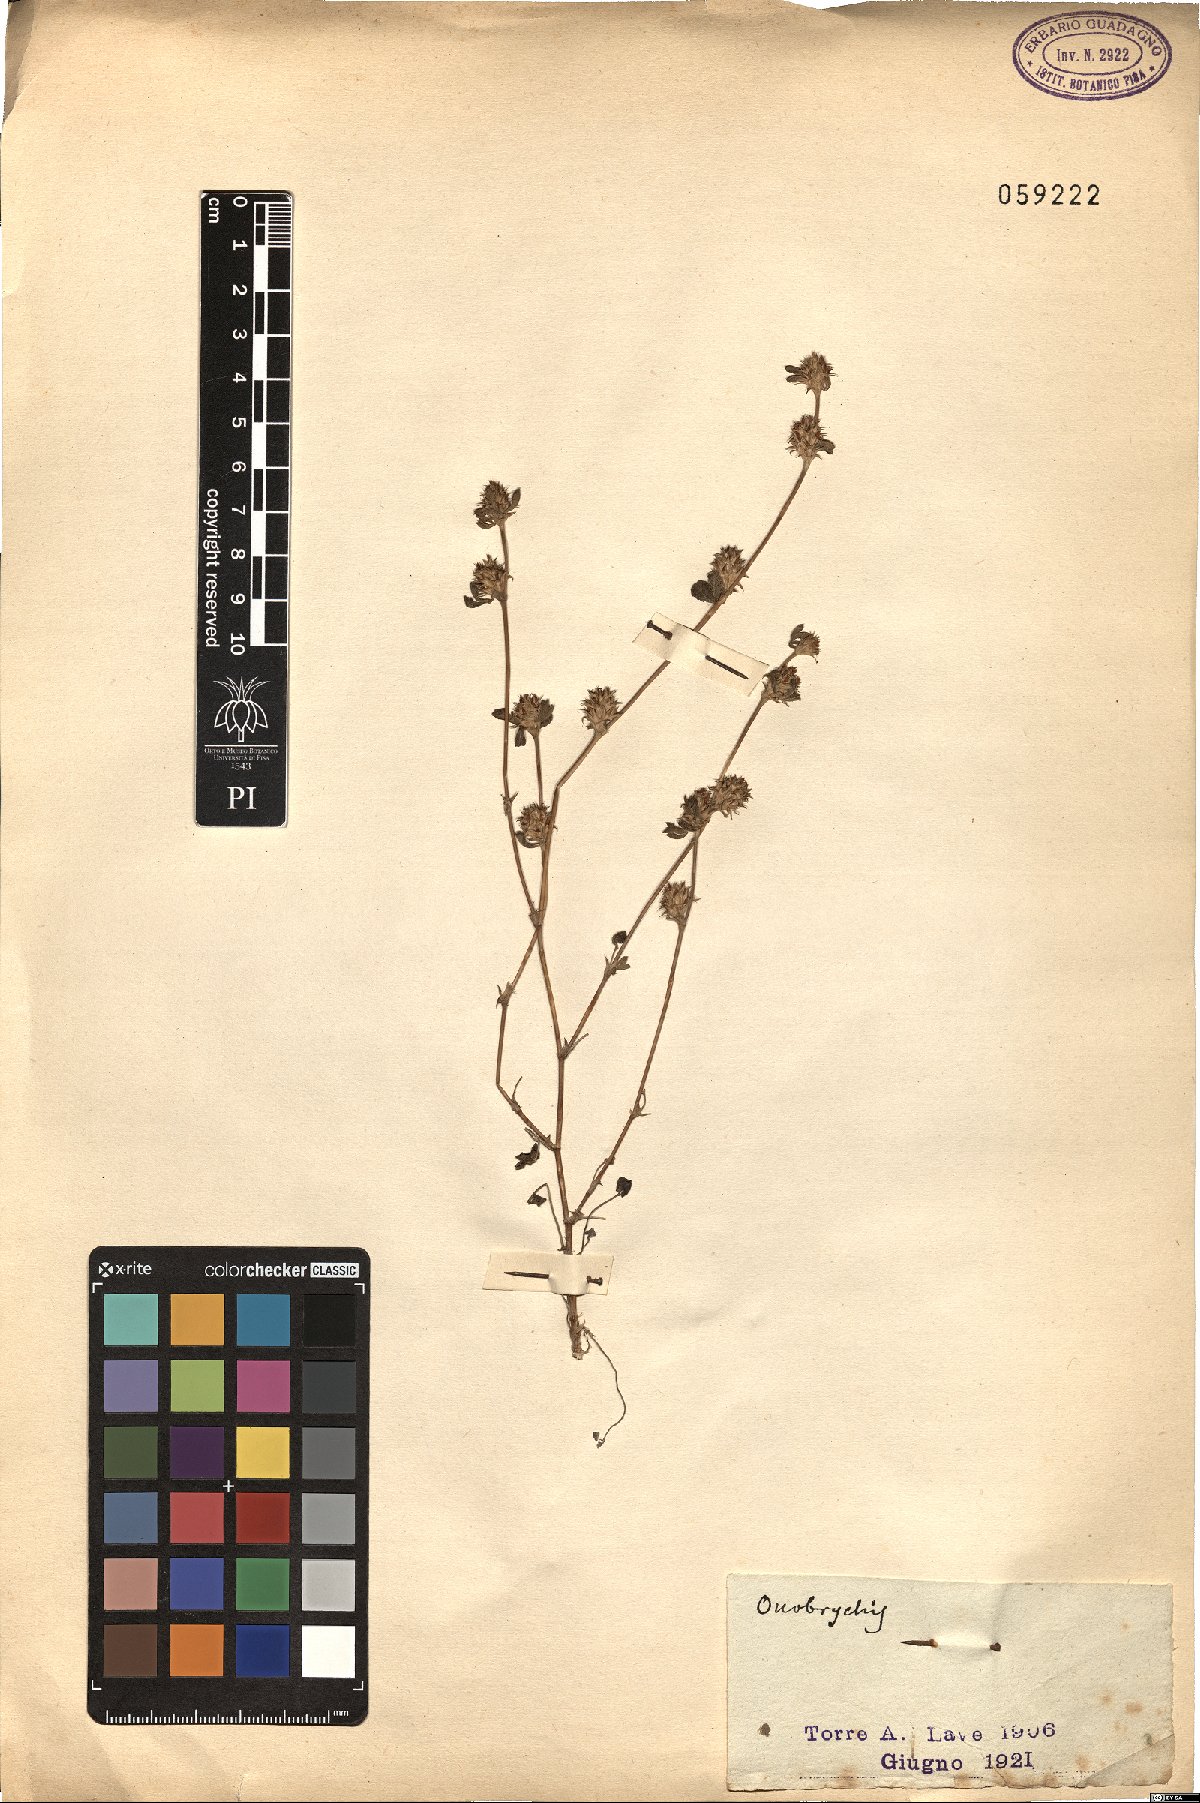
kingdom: Plantae
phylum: Tracheophyta
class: Magnoliopsida
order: Fabales
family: Fabaceae
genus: Onobrychis
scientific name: Onobrychis
